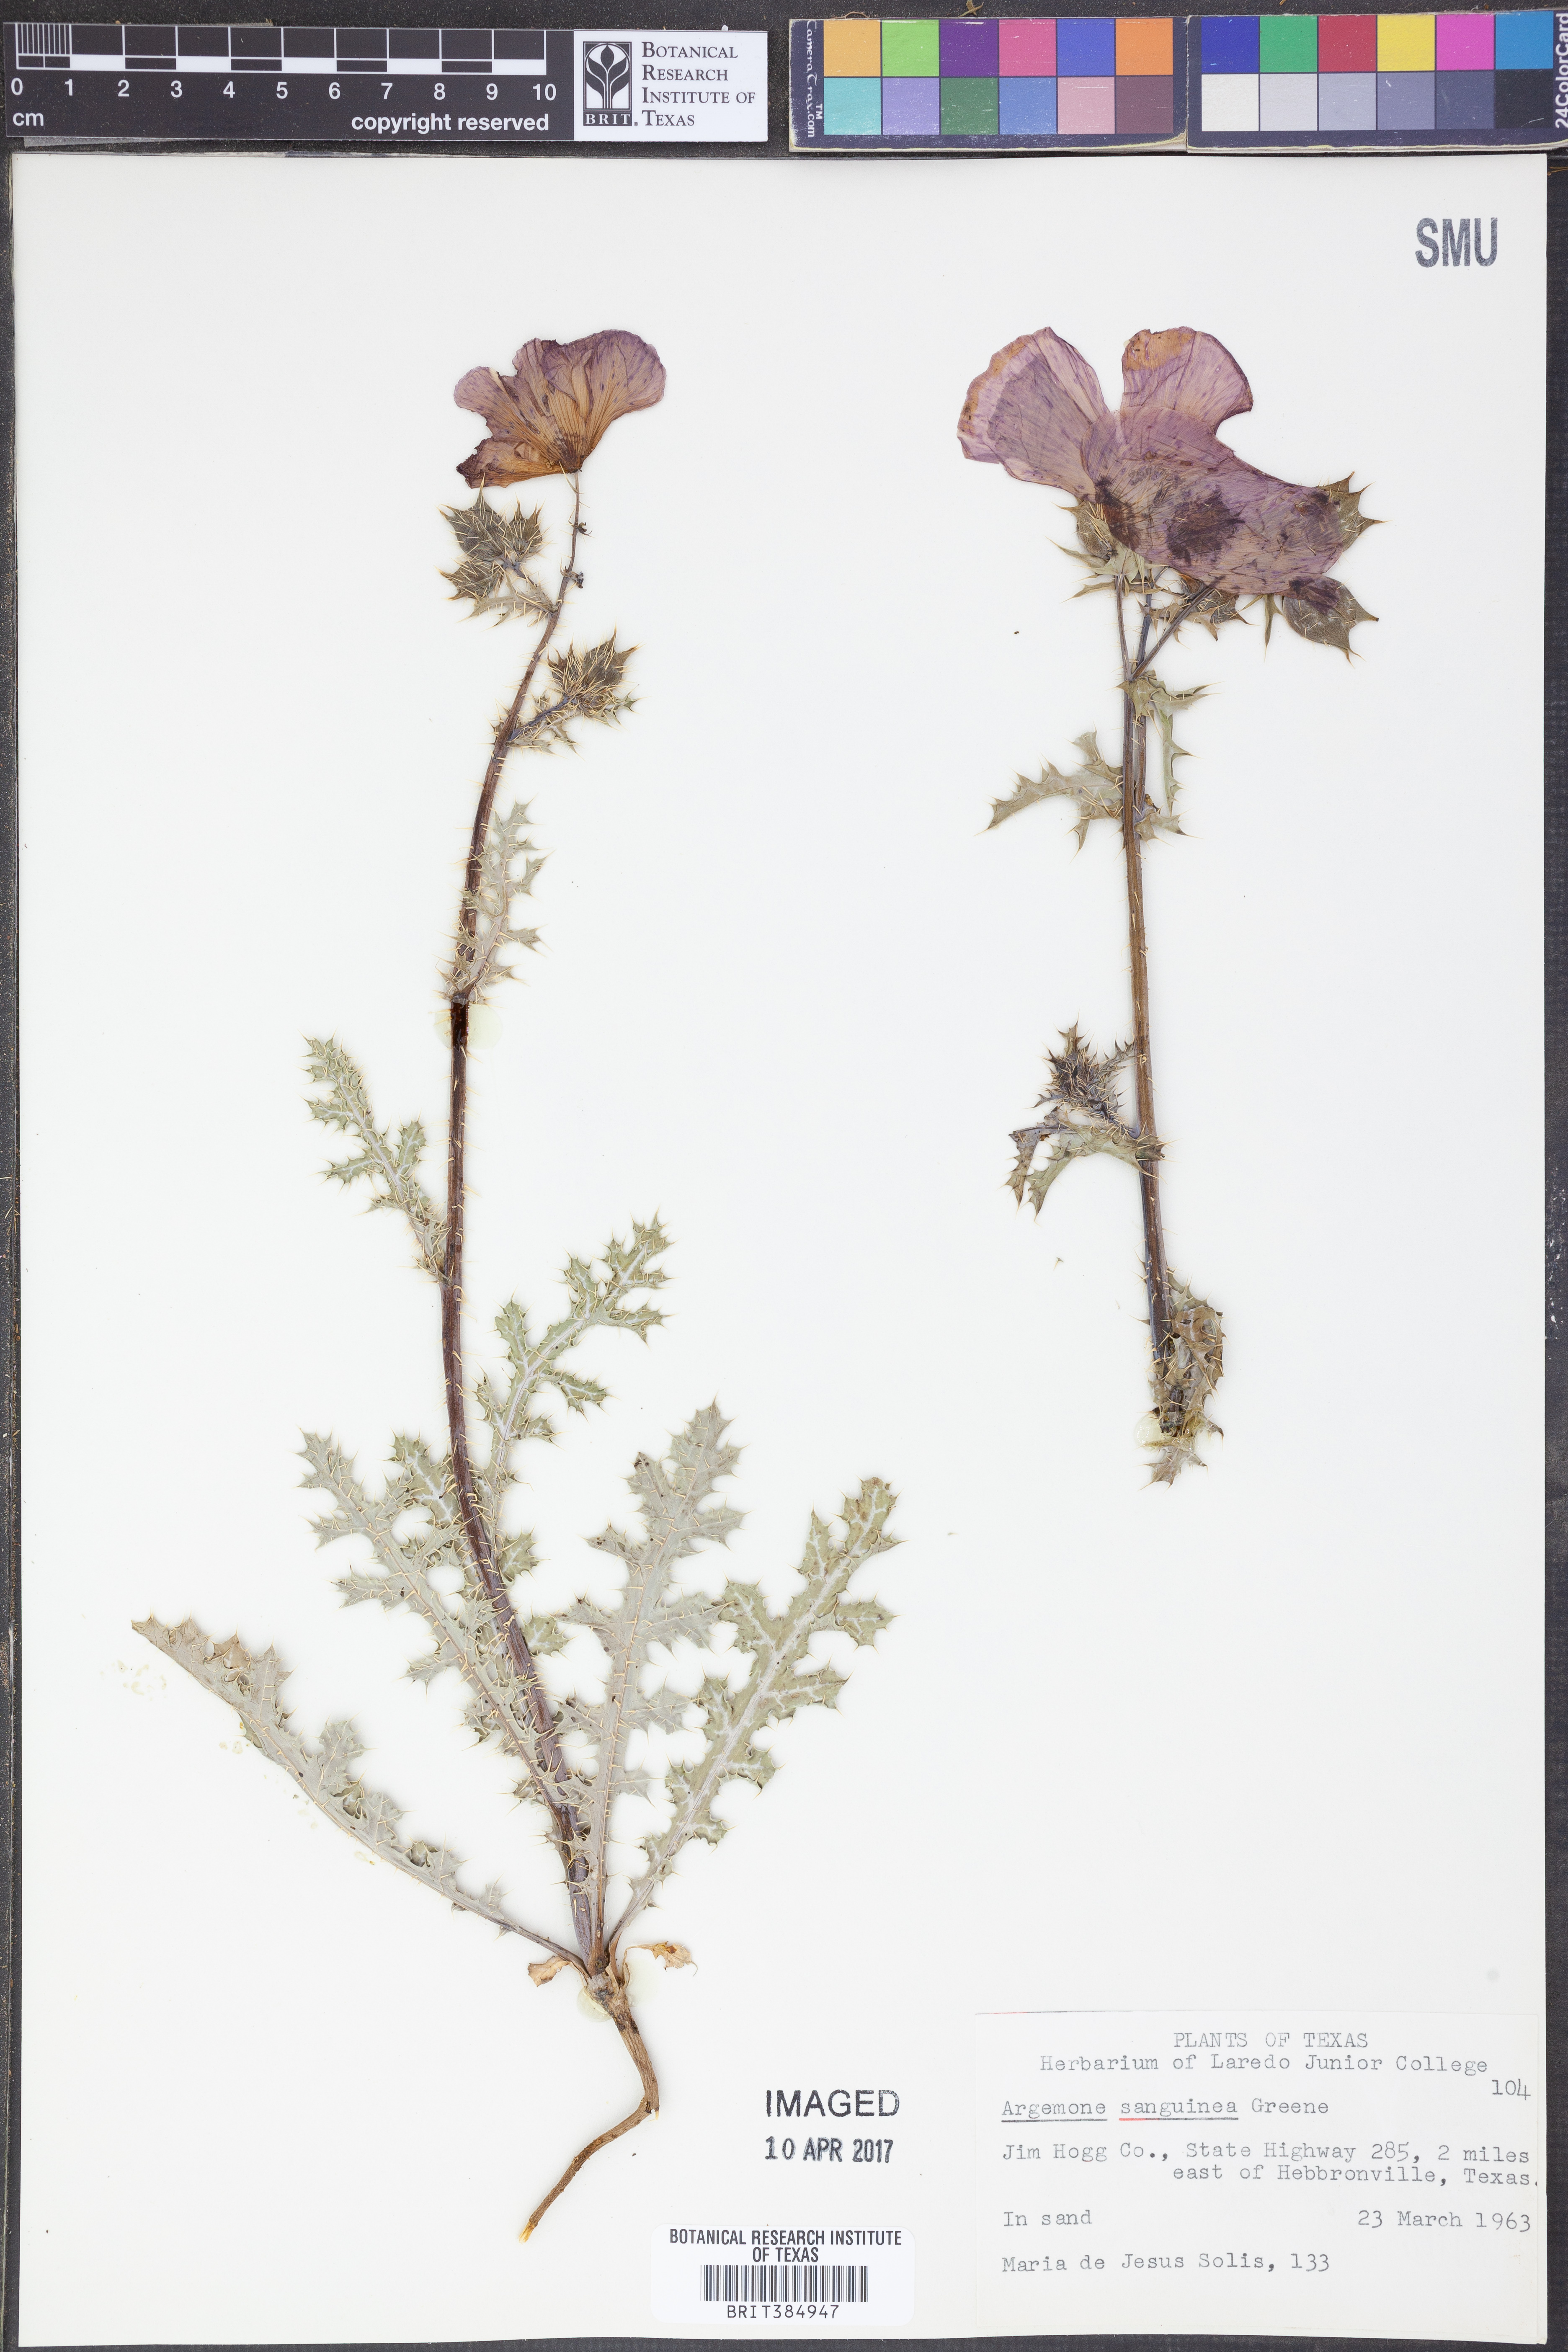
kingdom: Plantae
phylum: Tracheophyta
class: Magnoliopsida
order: Ranunculales
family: Papaveraceae
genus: Argemone
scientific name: Argemone sanguinea
